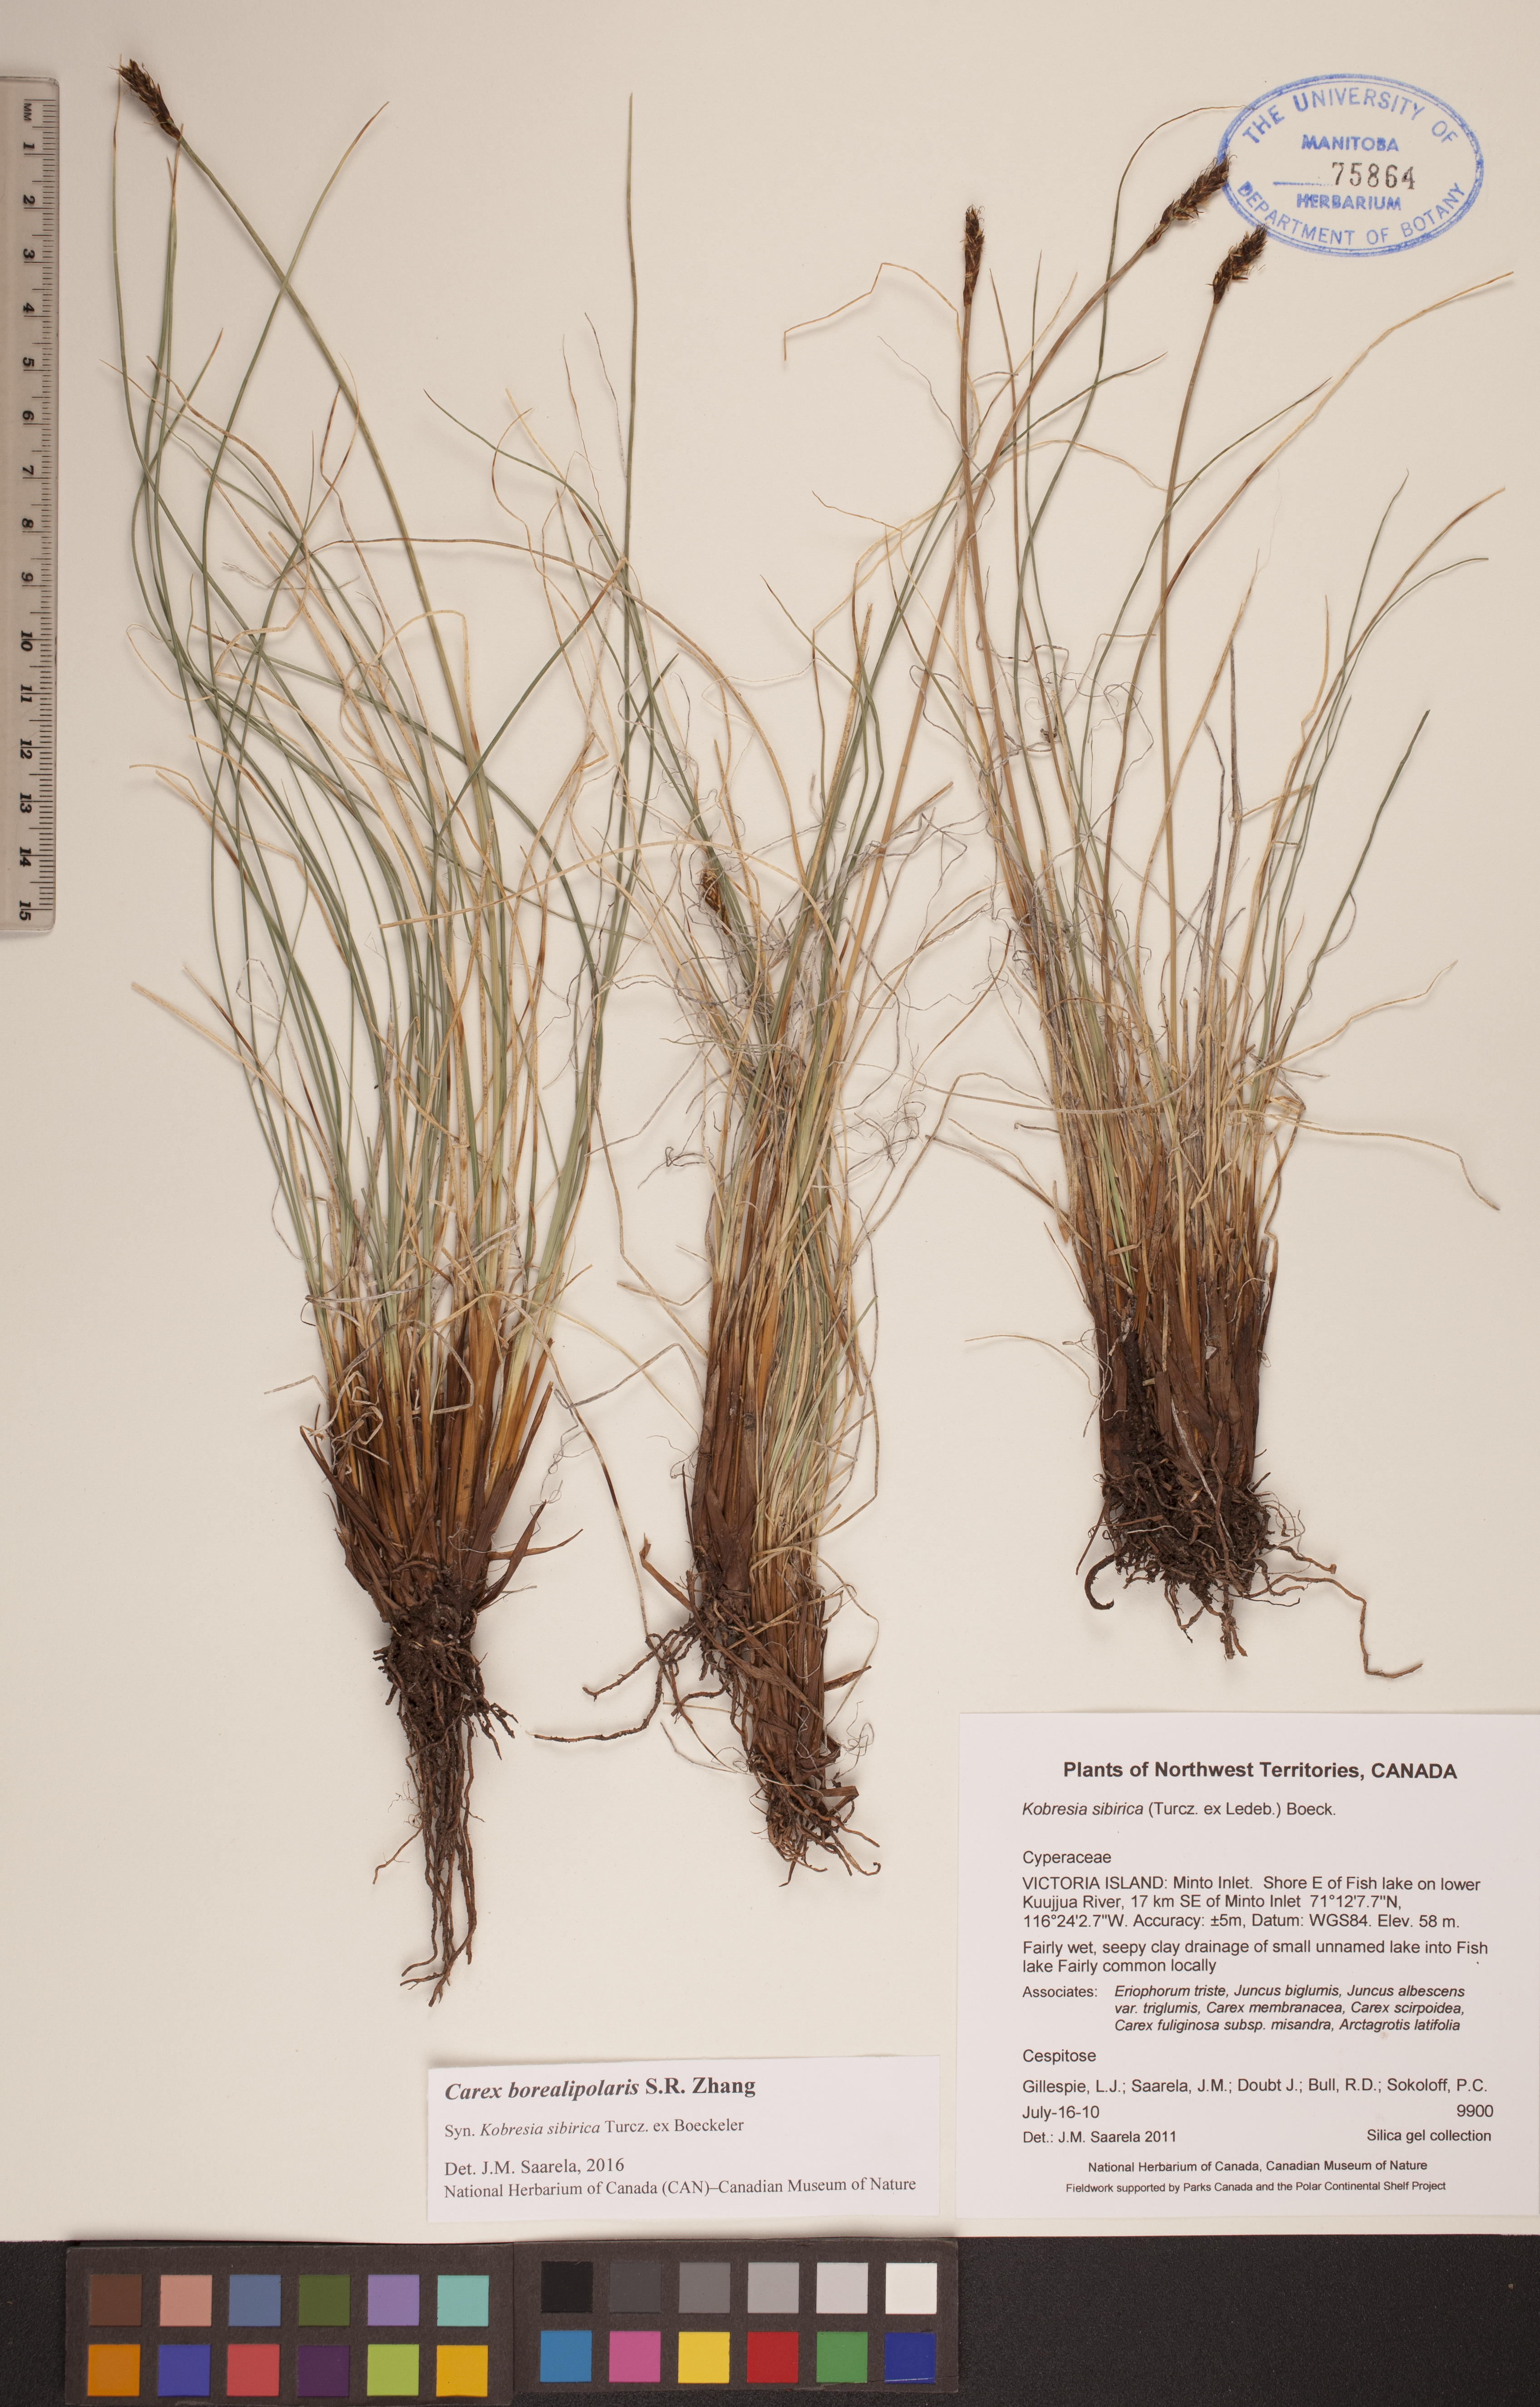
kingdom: Plantae
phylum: Tracheophyta
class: Liliopsida
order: Poales
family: Cyperaceae
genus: Carex
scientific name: Carex borealipolaris
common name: Siberian bog sedge
